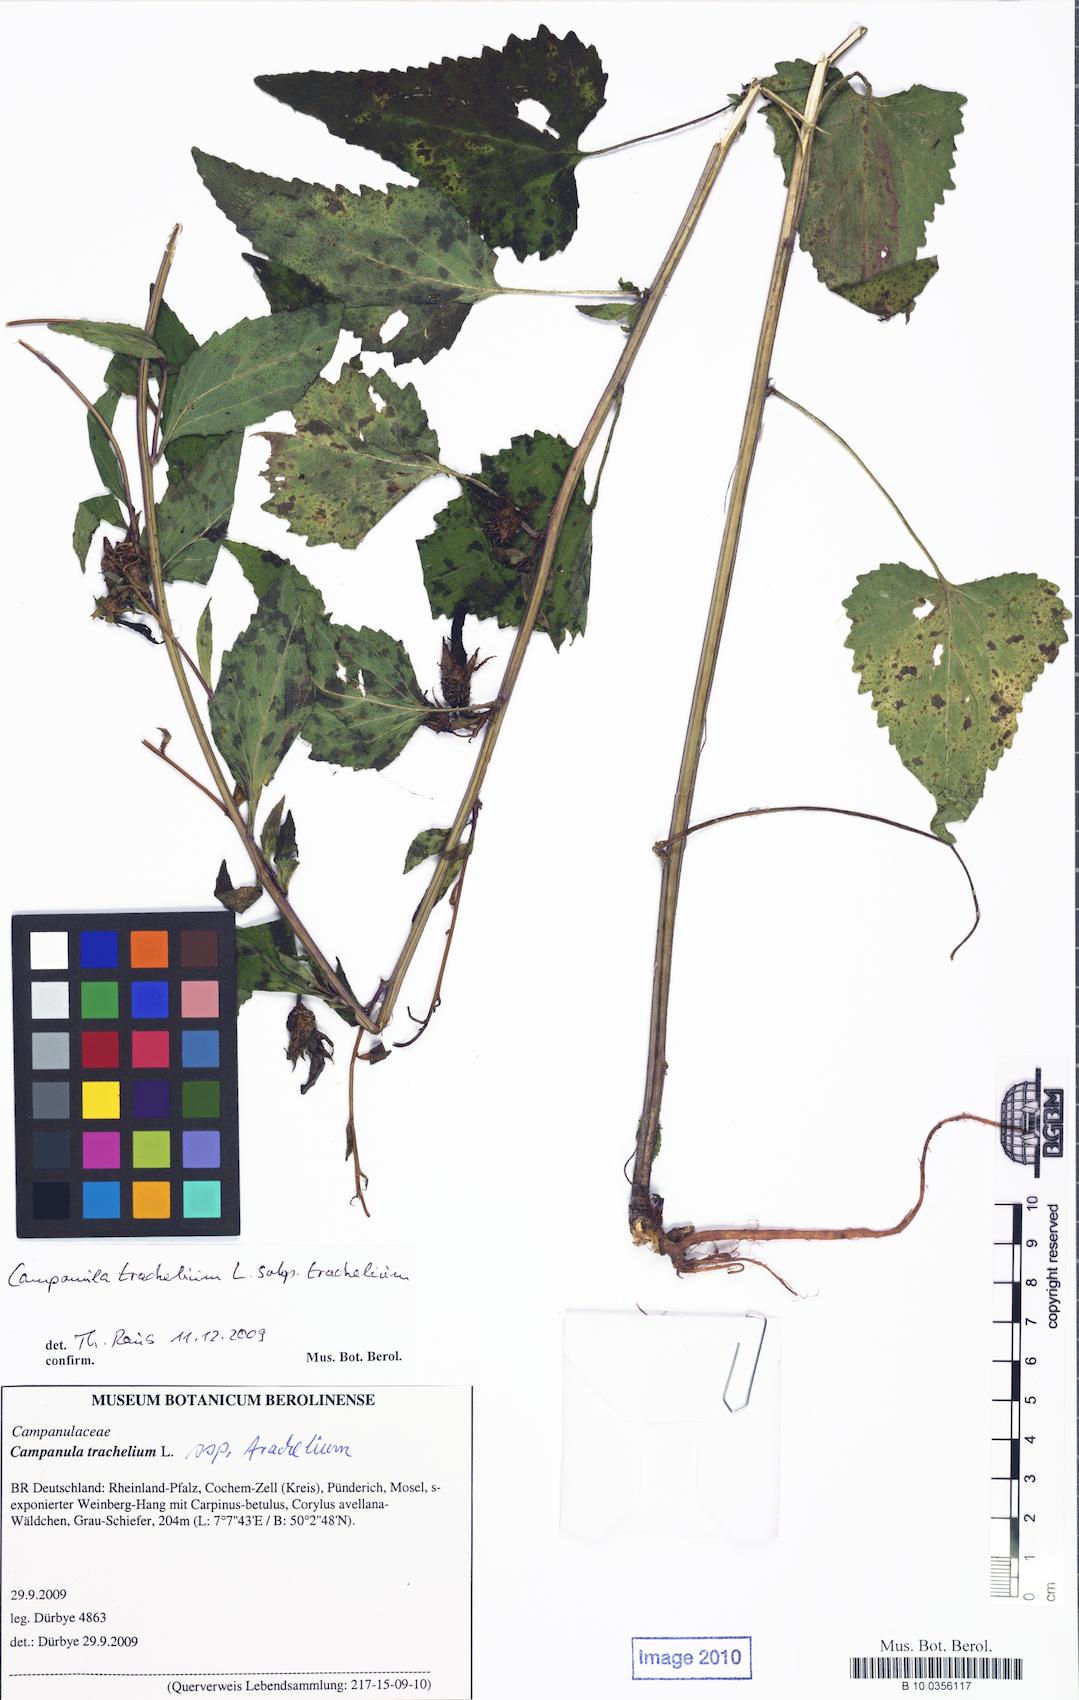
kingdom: Plantae
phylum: Tracheophyta
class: Magnoliopsida
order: Asterales
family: Campanulaceae
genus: Campanula
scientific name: Campanula trachelium
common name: Nettle-leaved bellflower
